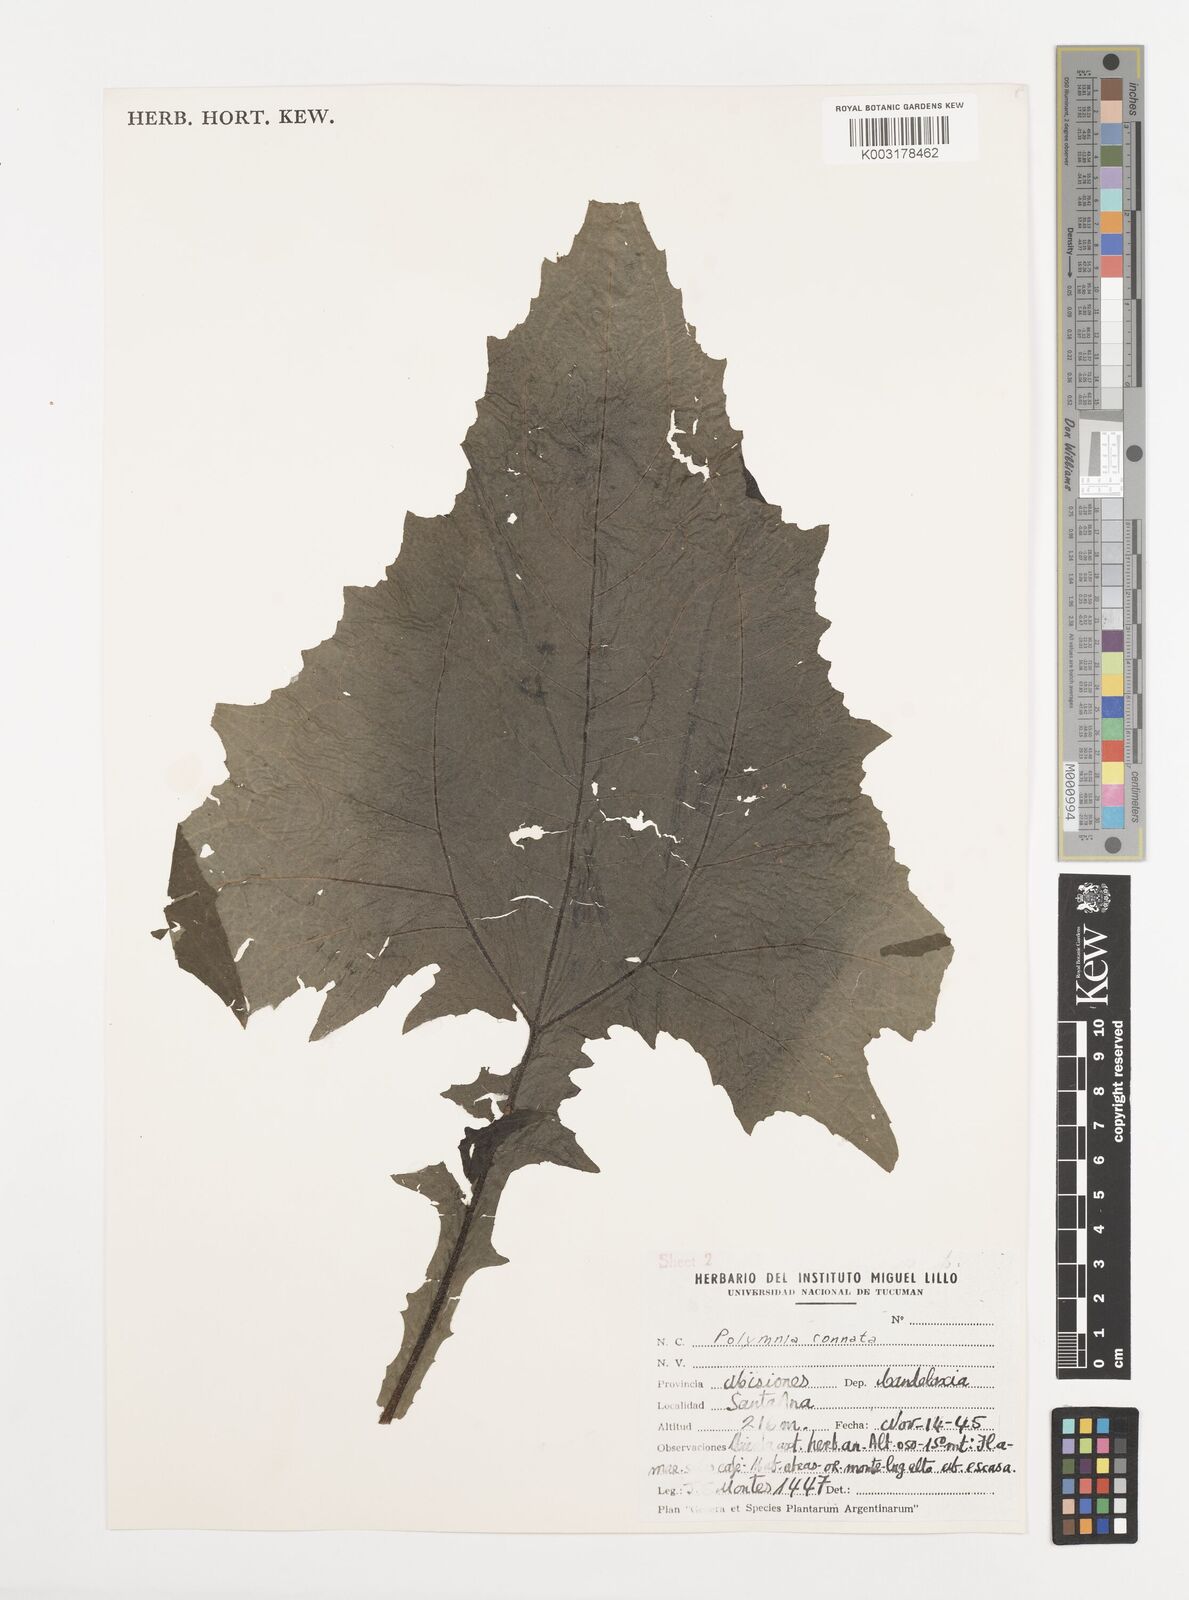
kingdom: Plantae
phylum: Tracheophyta
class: Magnoliopsida
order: Asterales
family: Asteraceae
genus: Smallanthus
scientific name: Smallanthus connatus
